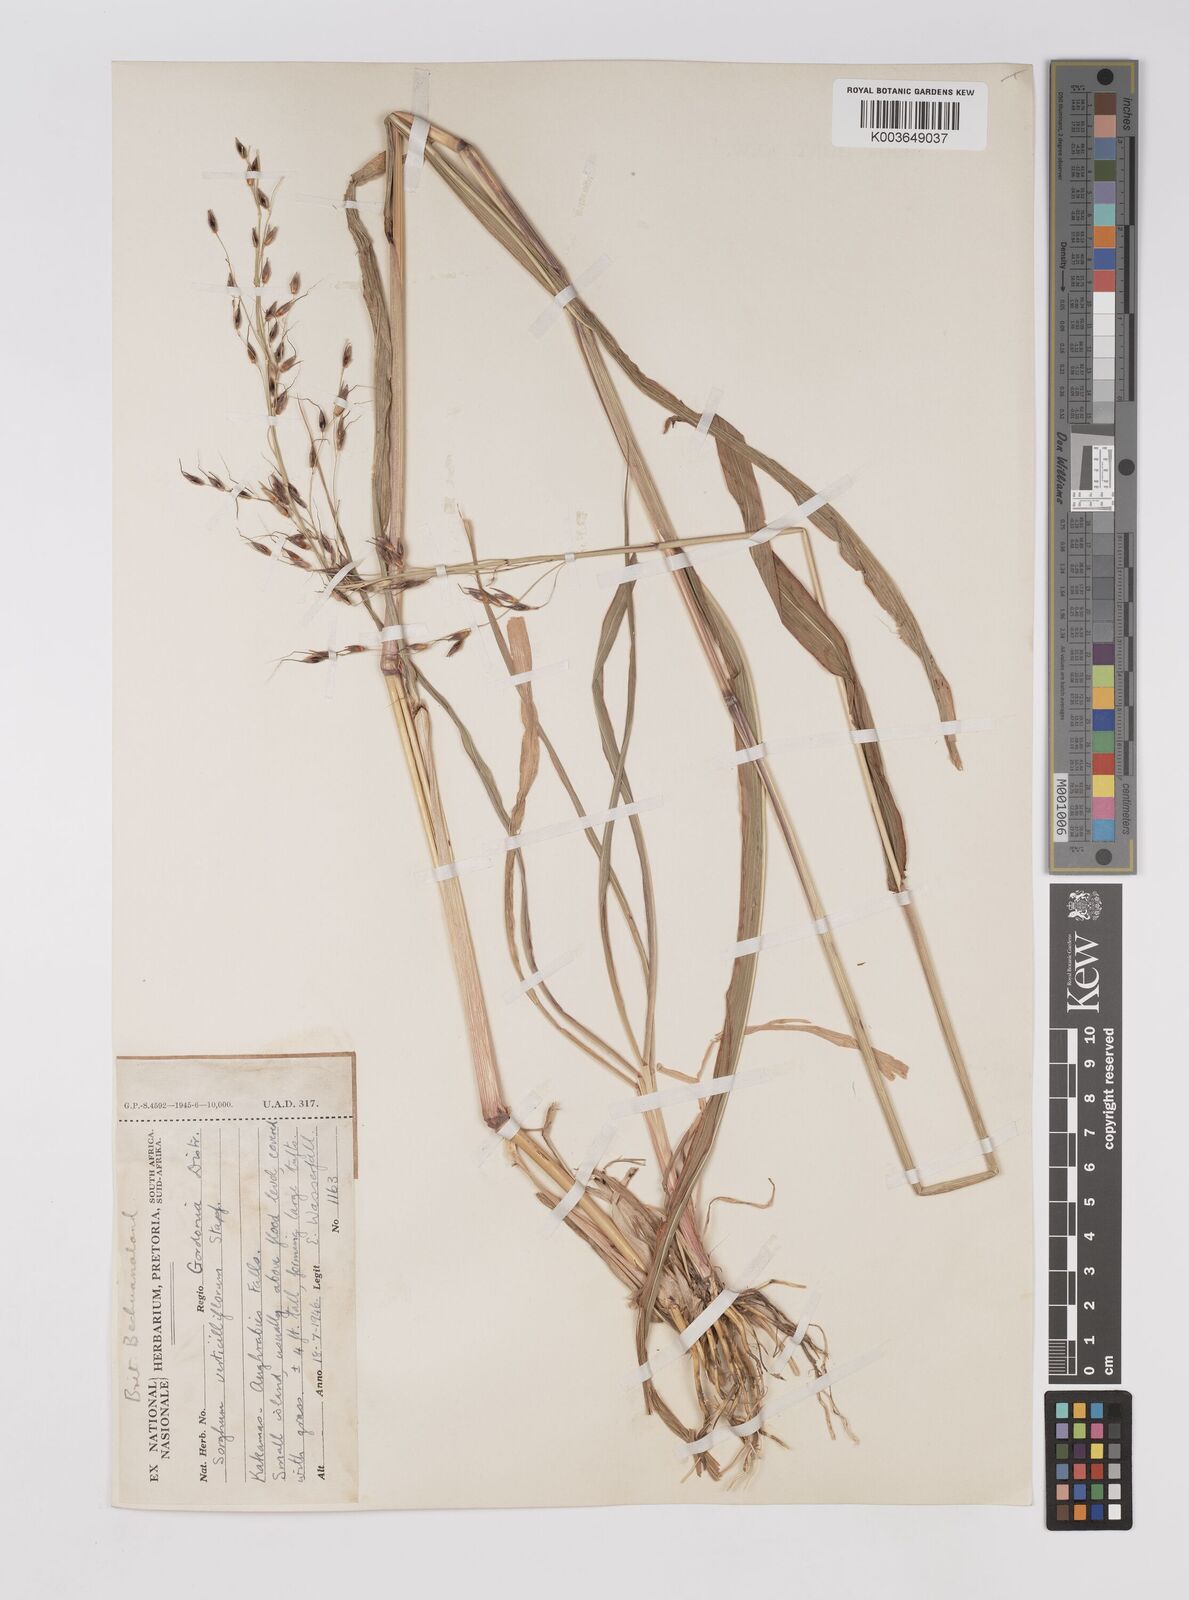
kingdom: Plantae
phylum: Tracheophyta
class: Liliopsida
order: Poales
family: Poaceae
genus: Sorghum
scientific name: Sorghum arundinaceum
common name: Sorghum
